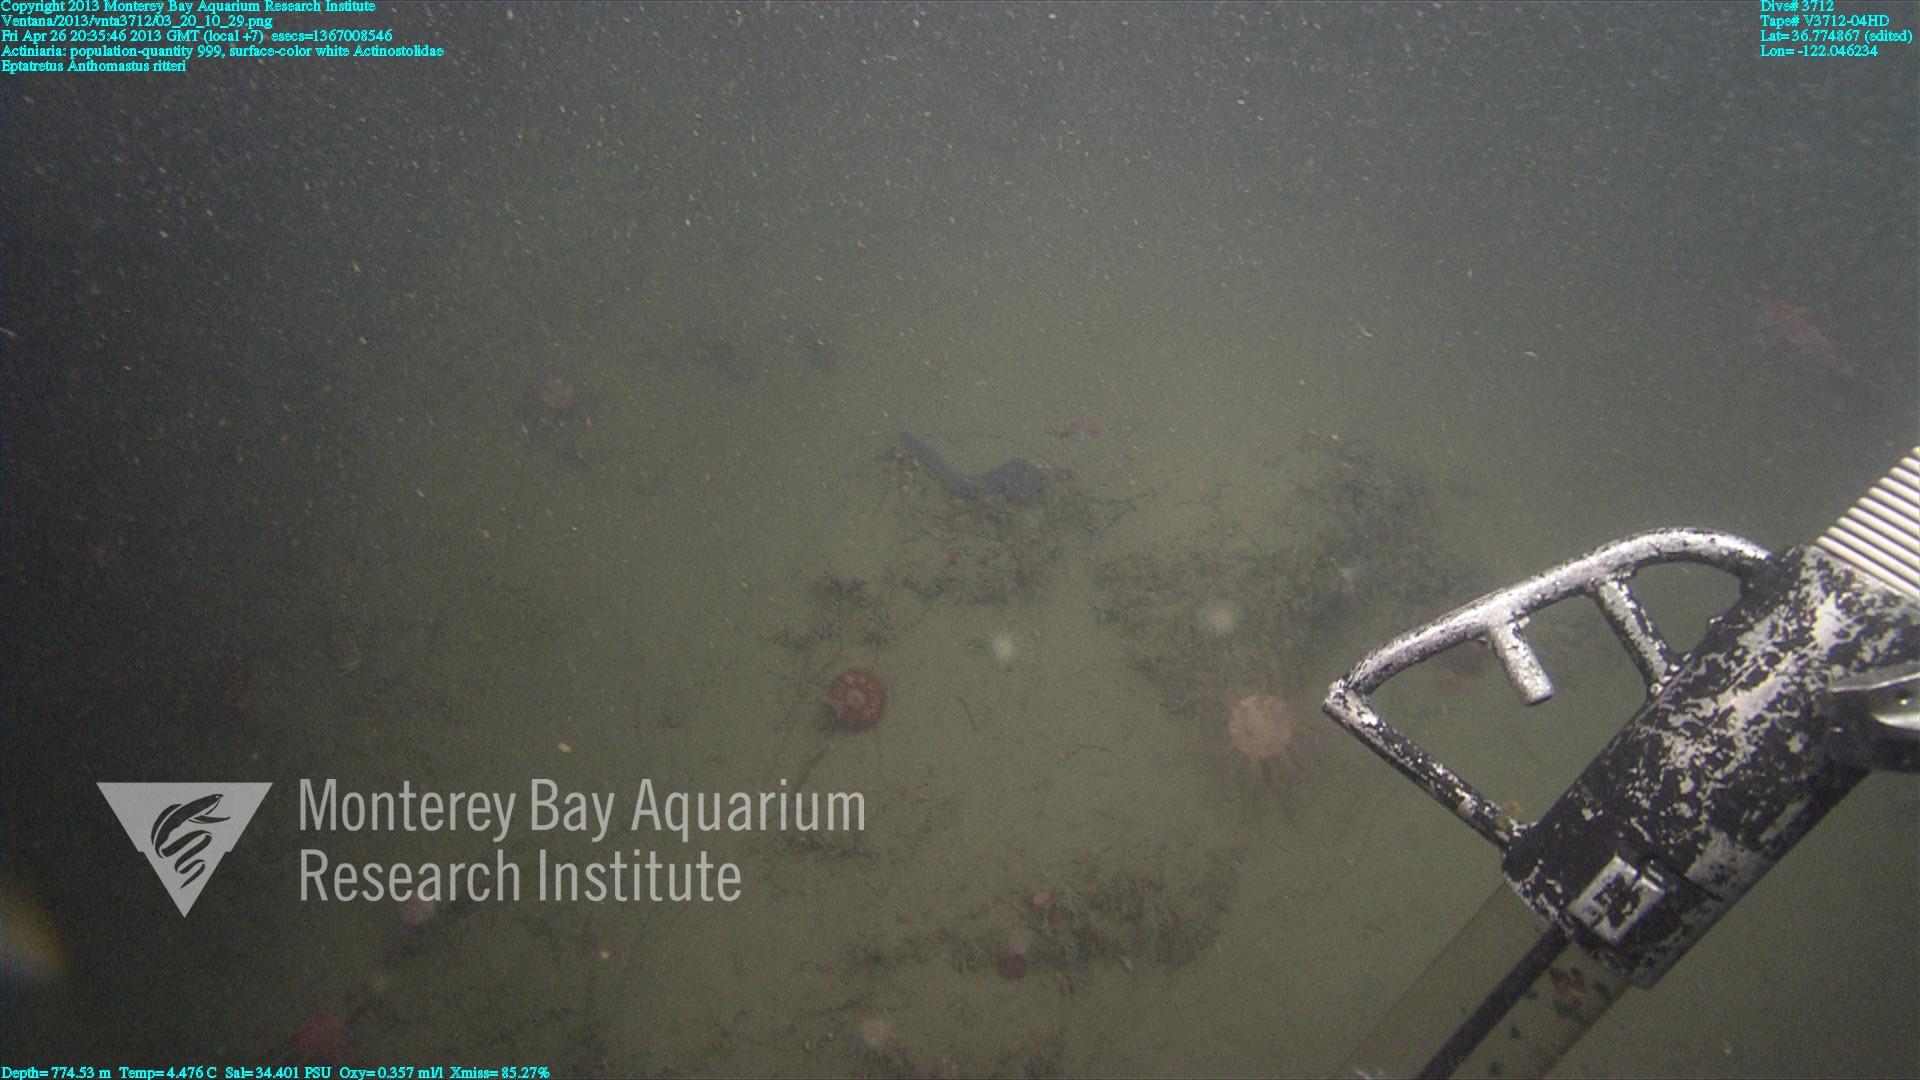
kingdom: Animalia
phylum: Cnidaria
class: Anthozoa
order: Scleralcyonacea
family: Coralliidae
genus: Heteropolypus
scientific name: Heteropolypus ritteri
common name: Ritter's soft coral
